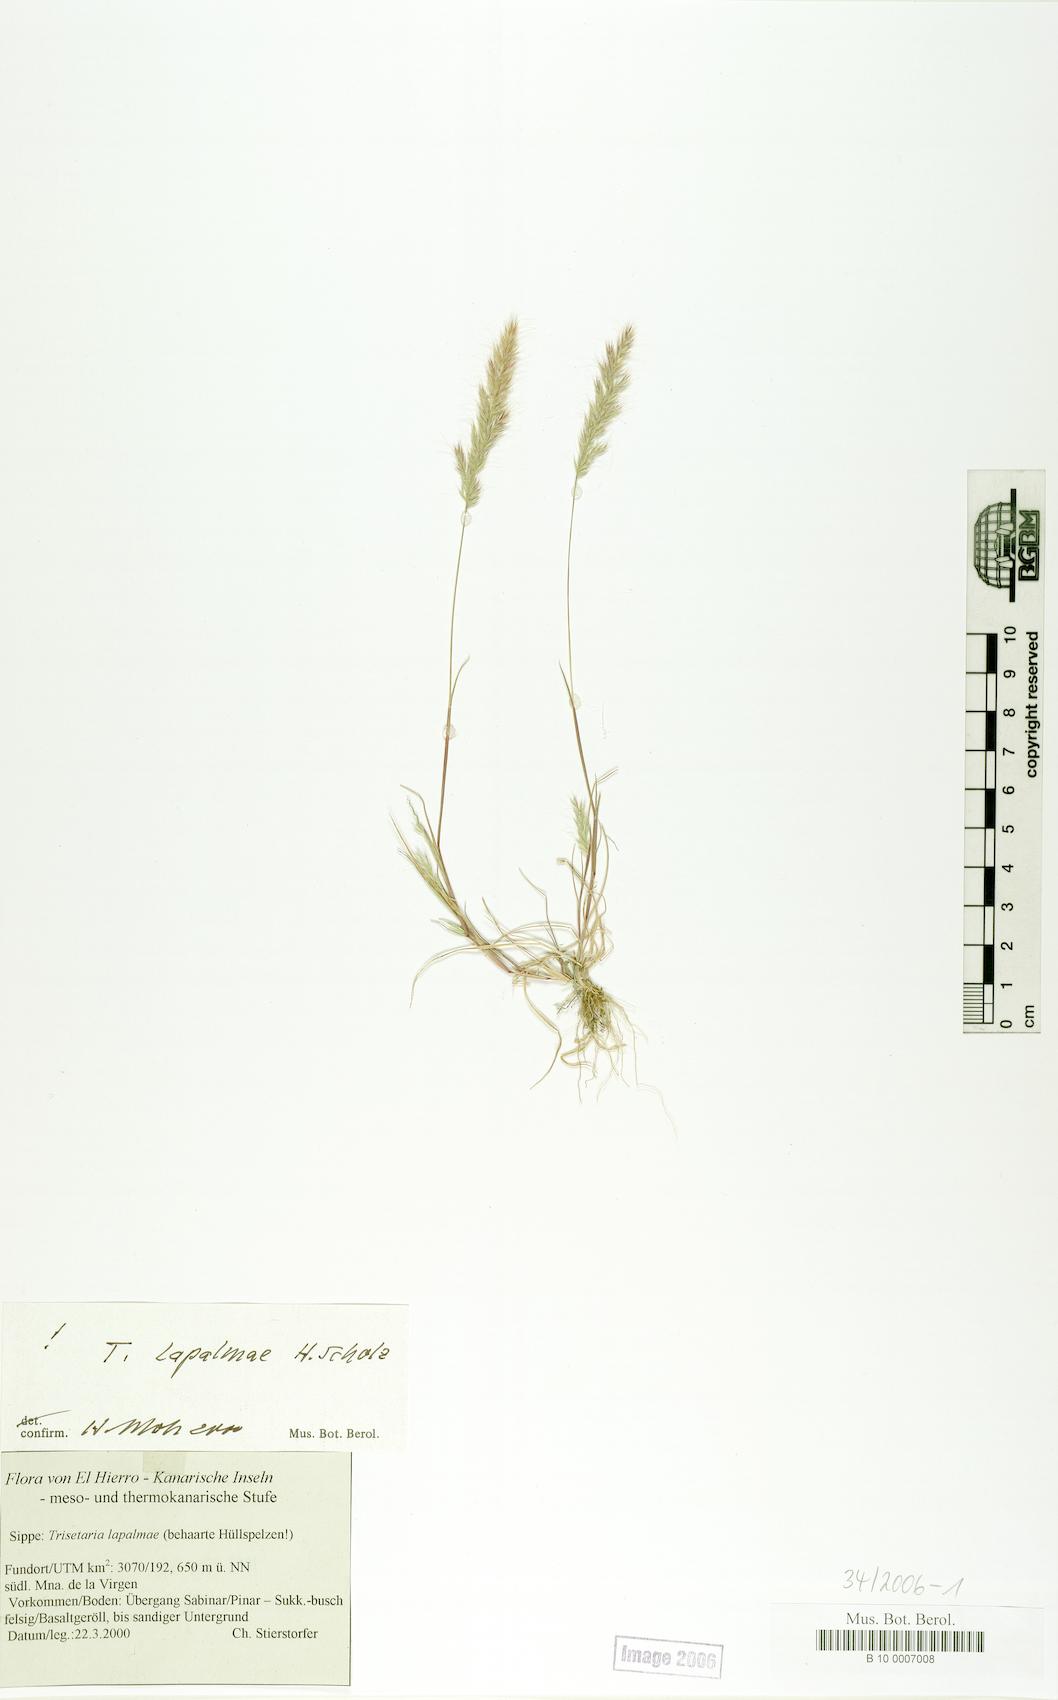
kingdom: Plantae
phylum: Tracheophyta
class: Liliopsida
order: Poales
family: Poaceae
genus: Trisetaria
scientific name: Trisetaria loeflingiana
